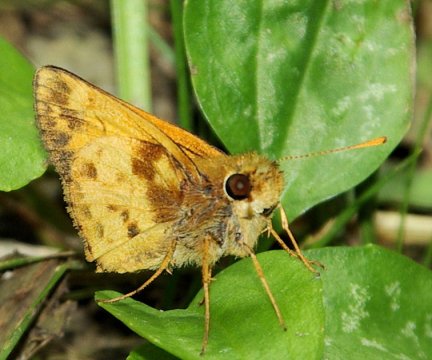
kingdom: Animalia
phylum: Arthropoda
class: Insecta
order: Lepidoptera
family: Hesperiidae
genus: Lon
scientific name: Lon zabulon
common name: Zabulon Skipper
